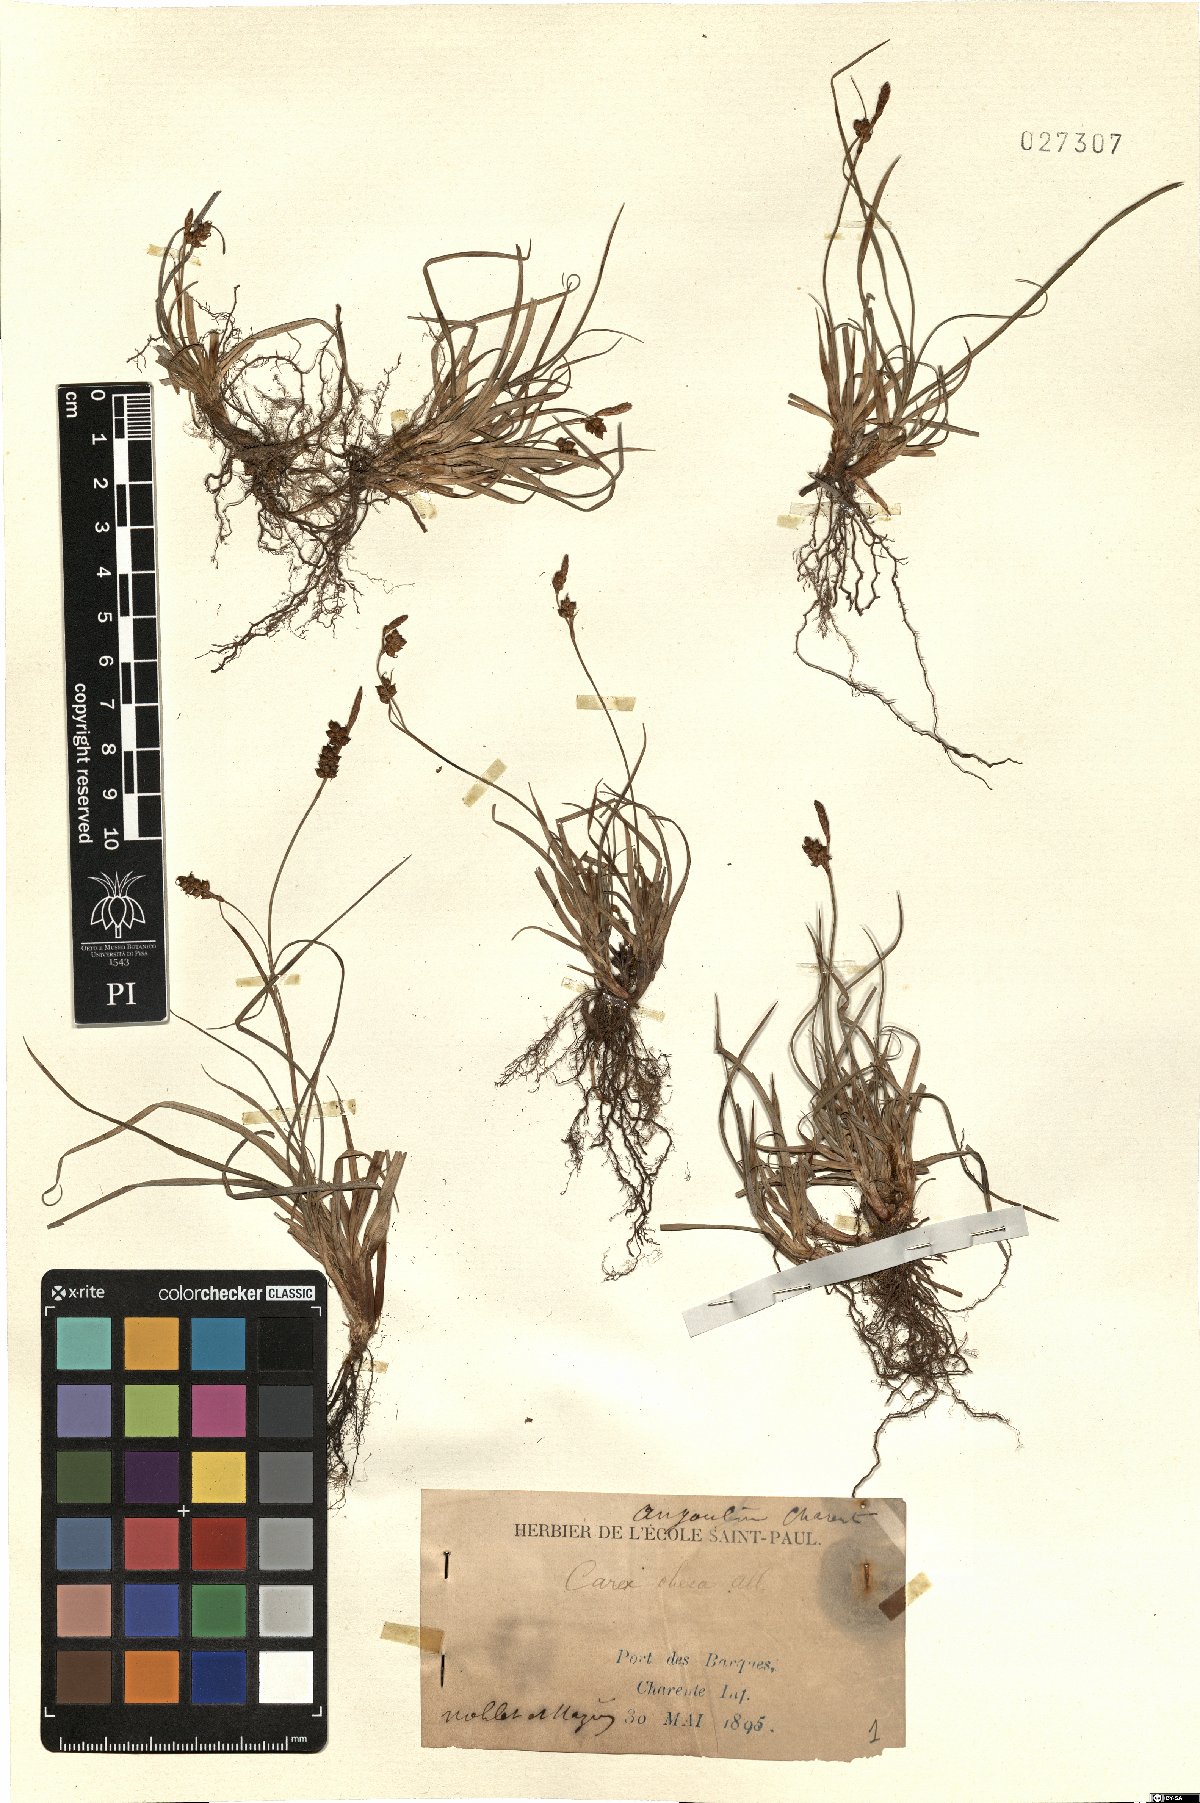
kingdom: Plantae
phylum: Tracheophyta
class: Liliopsida
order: Poales
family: Cyperaceae
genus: Carex
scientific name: Carex nigra
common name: Common sedge
